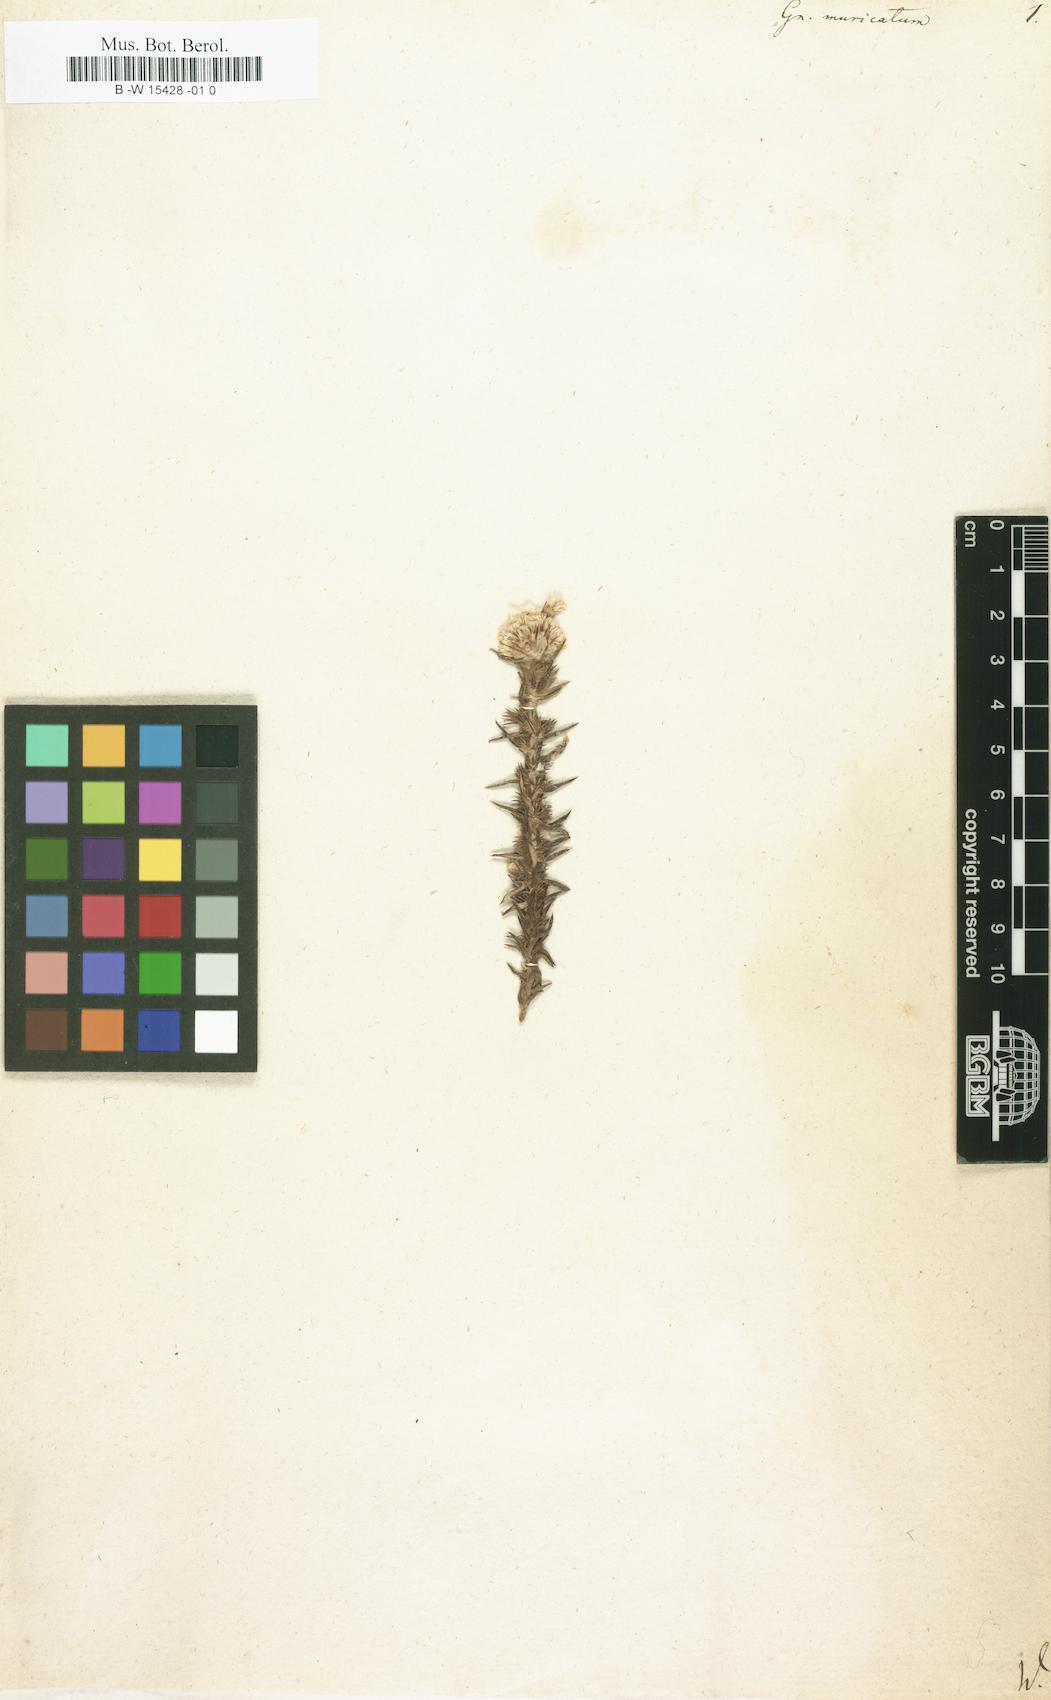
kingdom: Plantae
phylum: Tracheophyta
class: Magnoliopsida
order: Asterales
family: Asteraceae
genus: Metalasia
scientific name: Metalasia muricata
